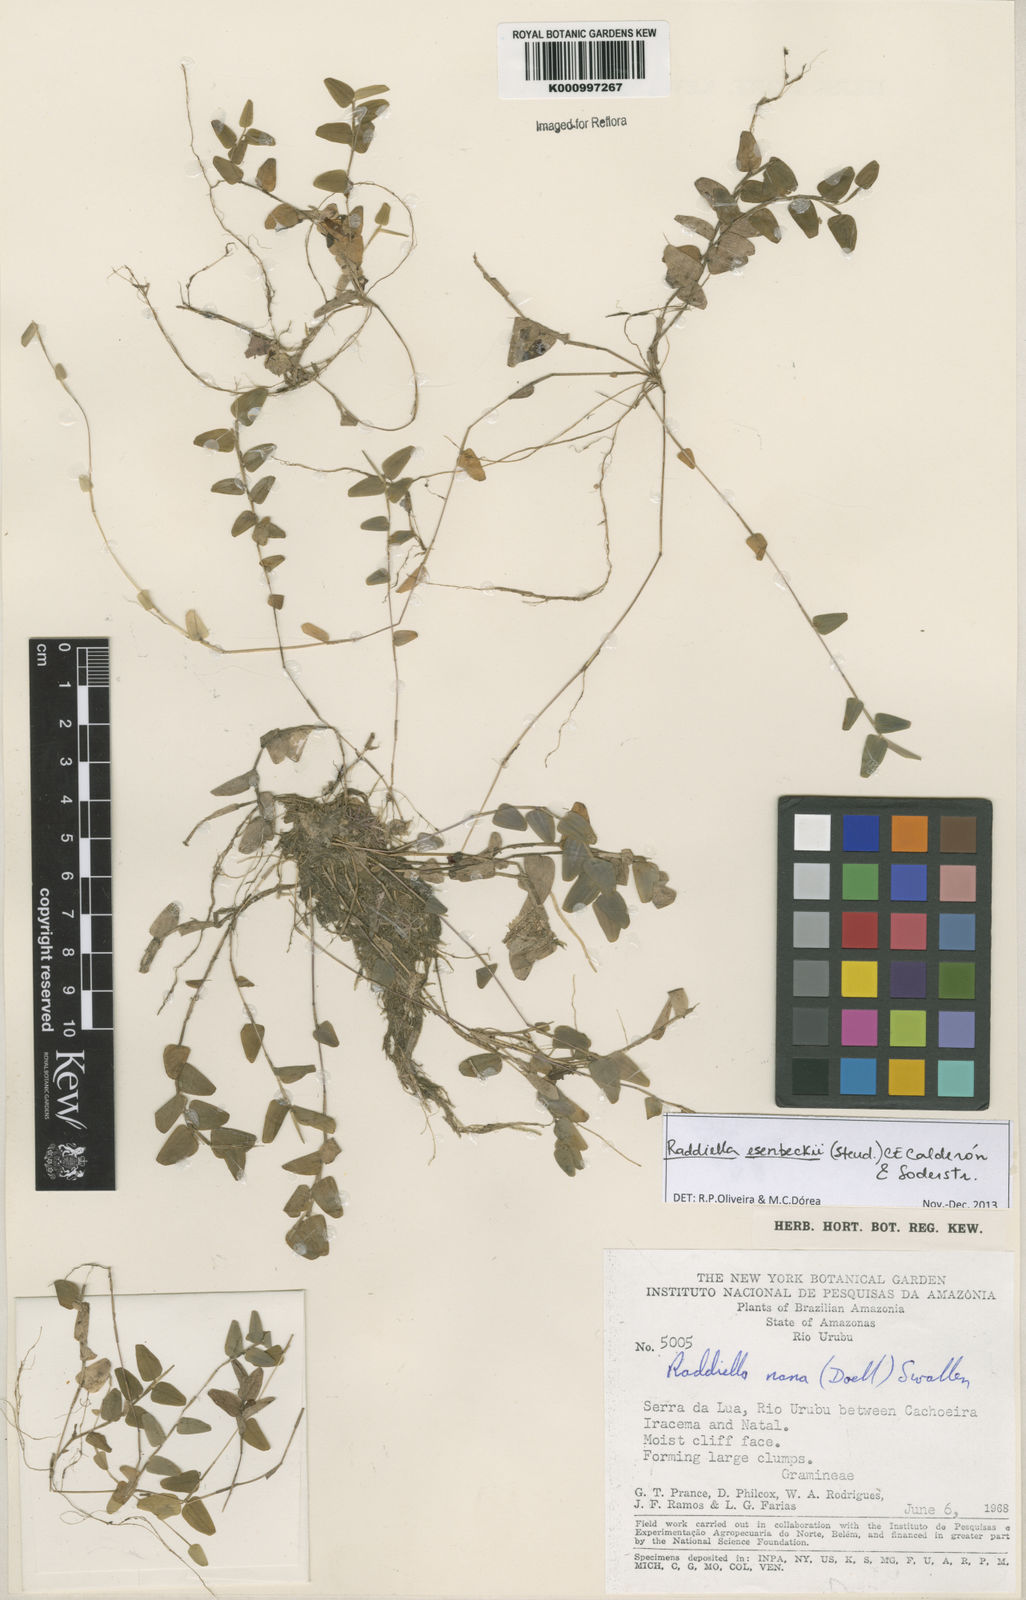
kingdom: Plantae
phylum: Tracheophyta
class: Liliopsida
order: Poales
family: Poaceae
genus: Raddiella
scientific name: Raddiella
